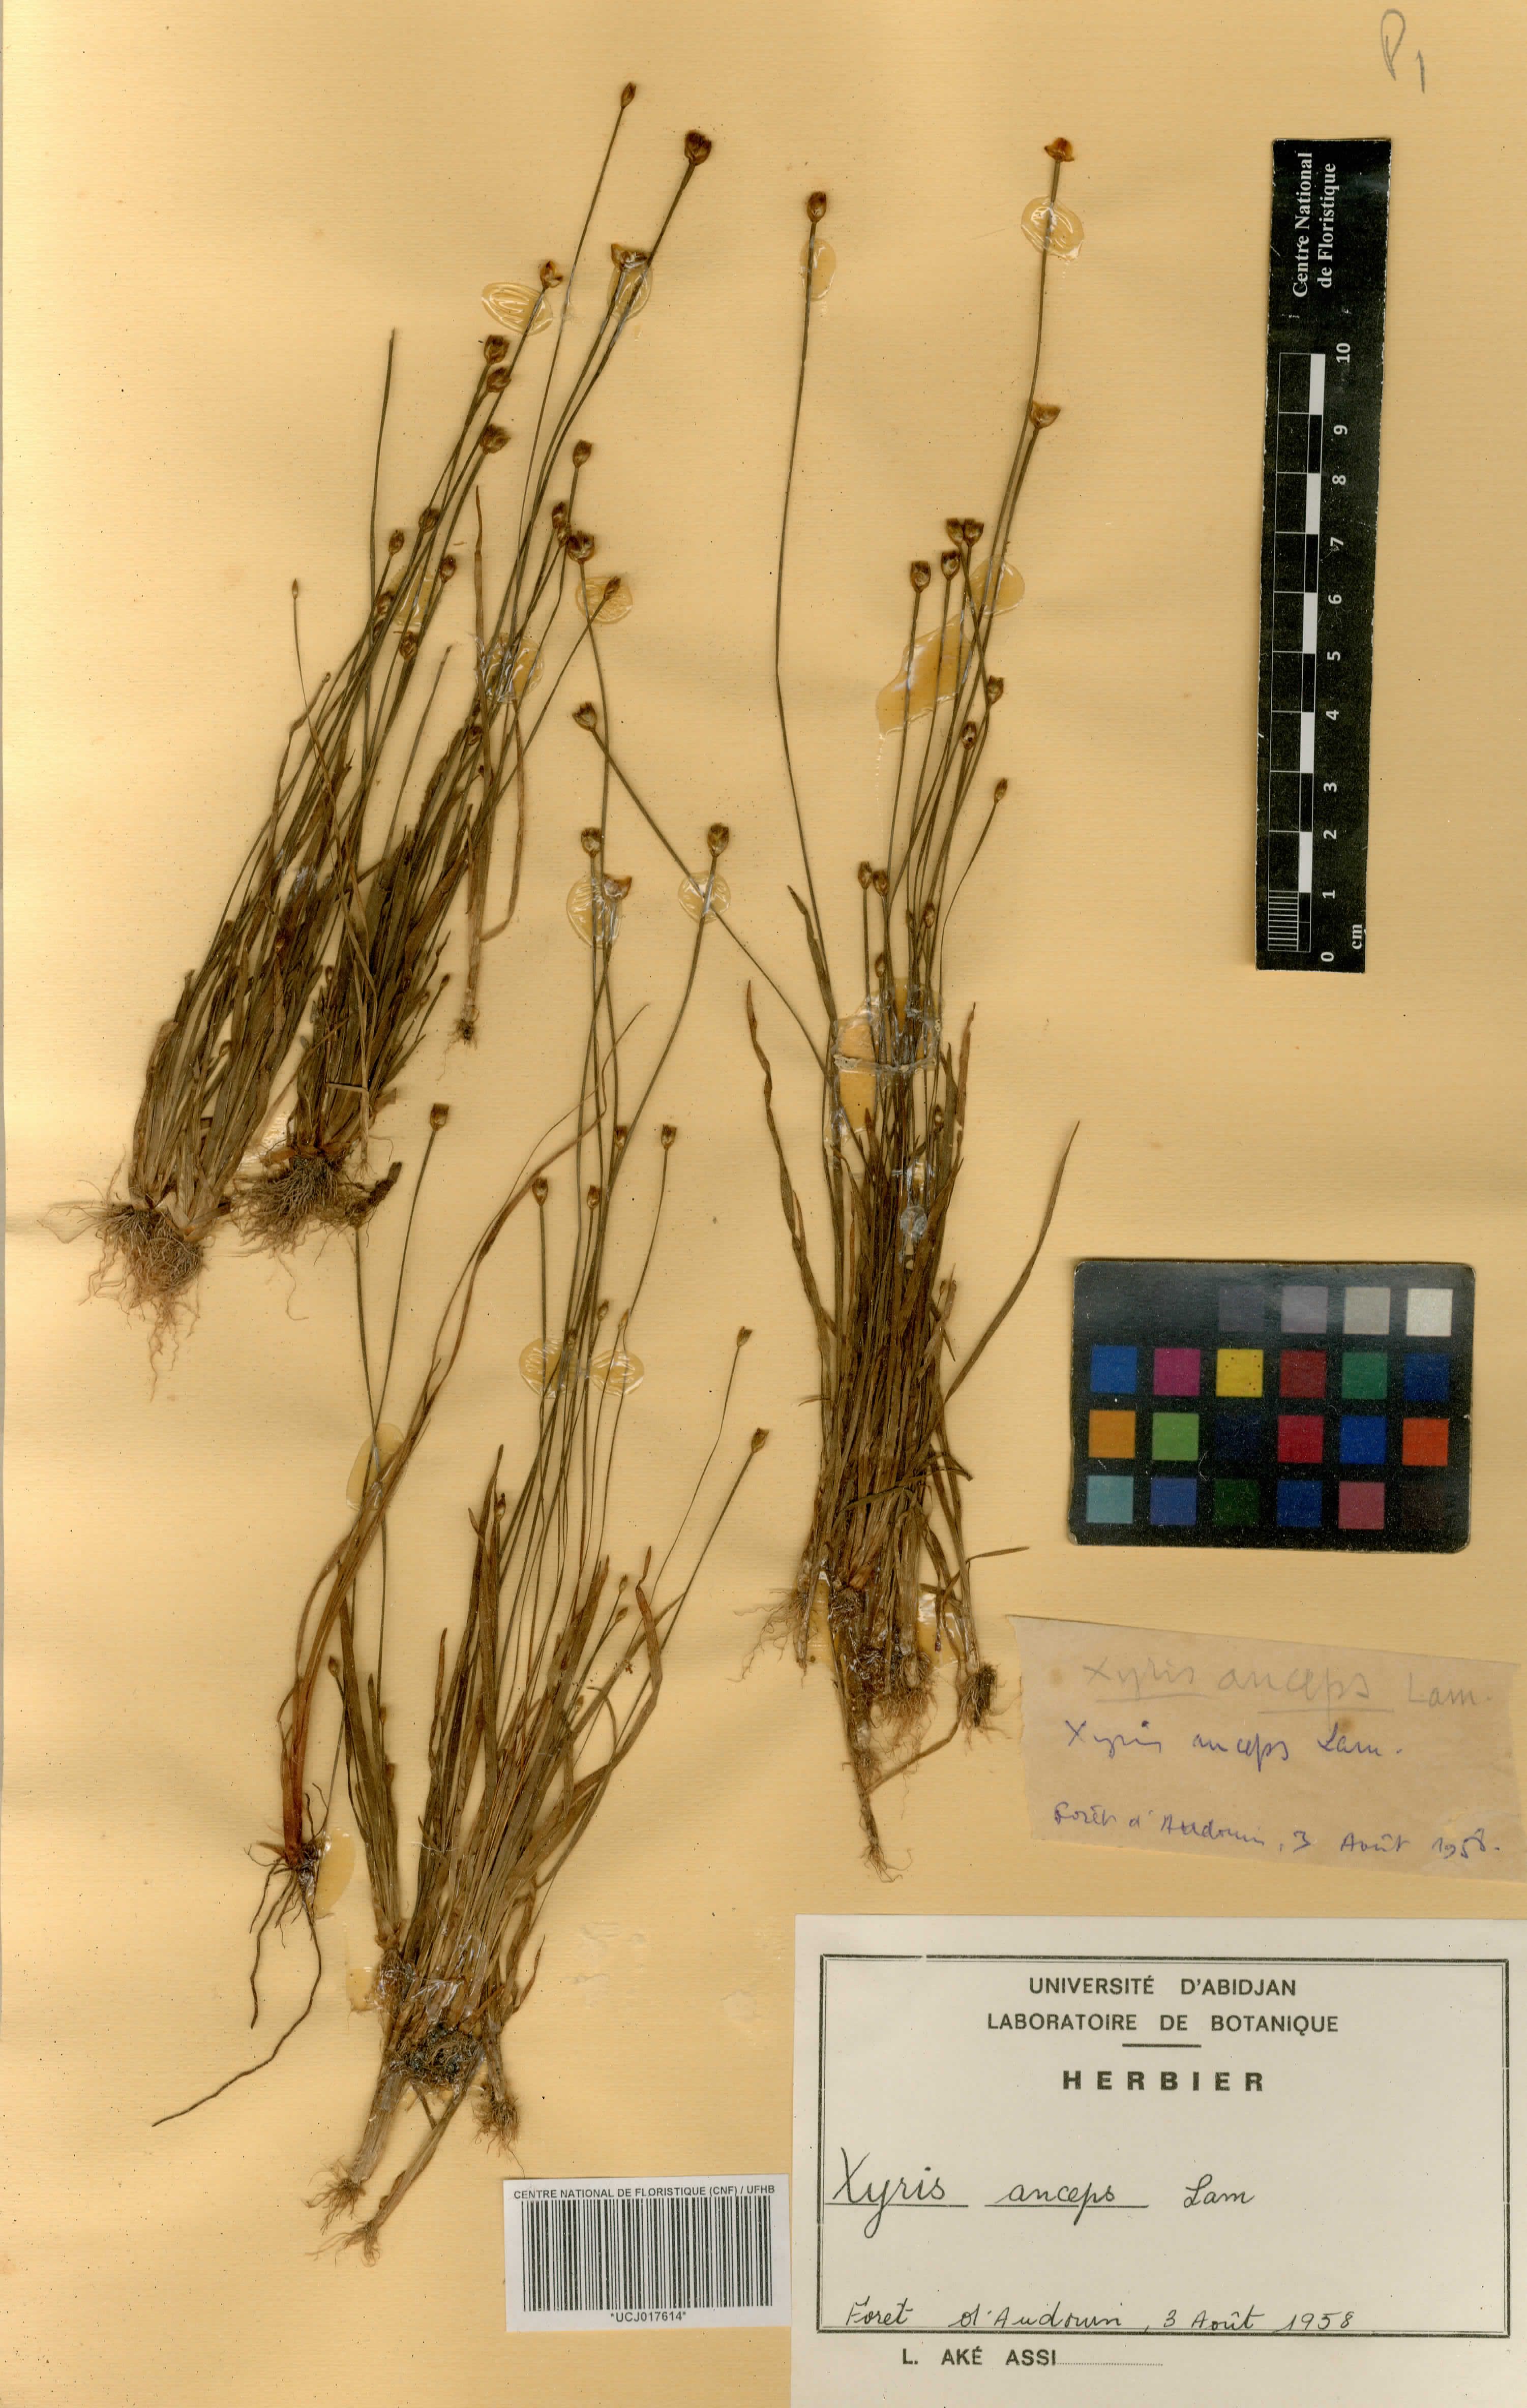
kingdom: Plantae
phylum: Tracheophyta
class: Liliopsida
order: Poales
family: Xyridaceae
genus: Xyris
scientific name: Xyris anceps
